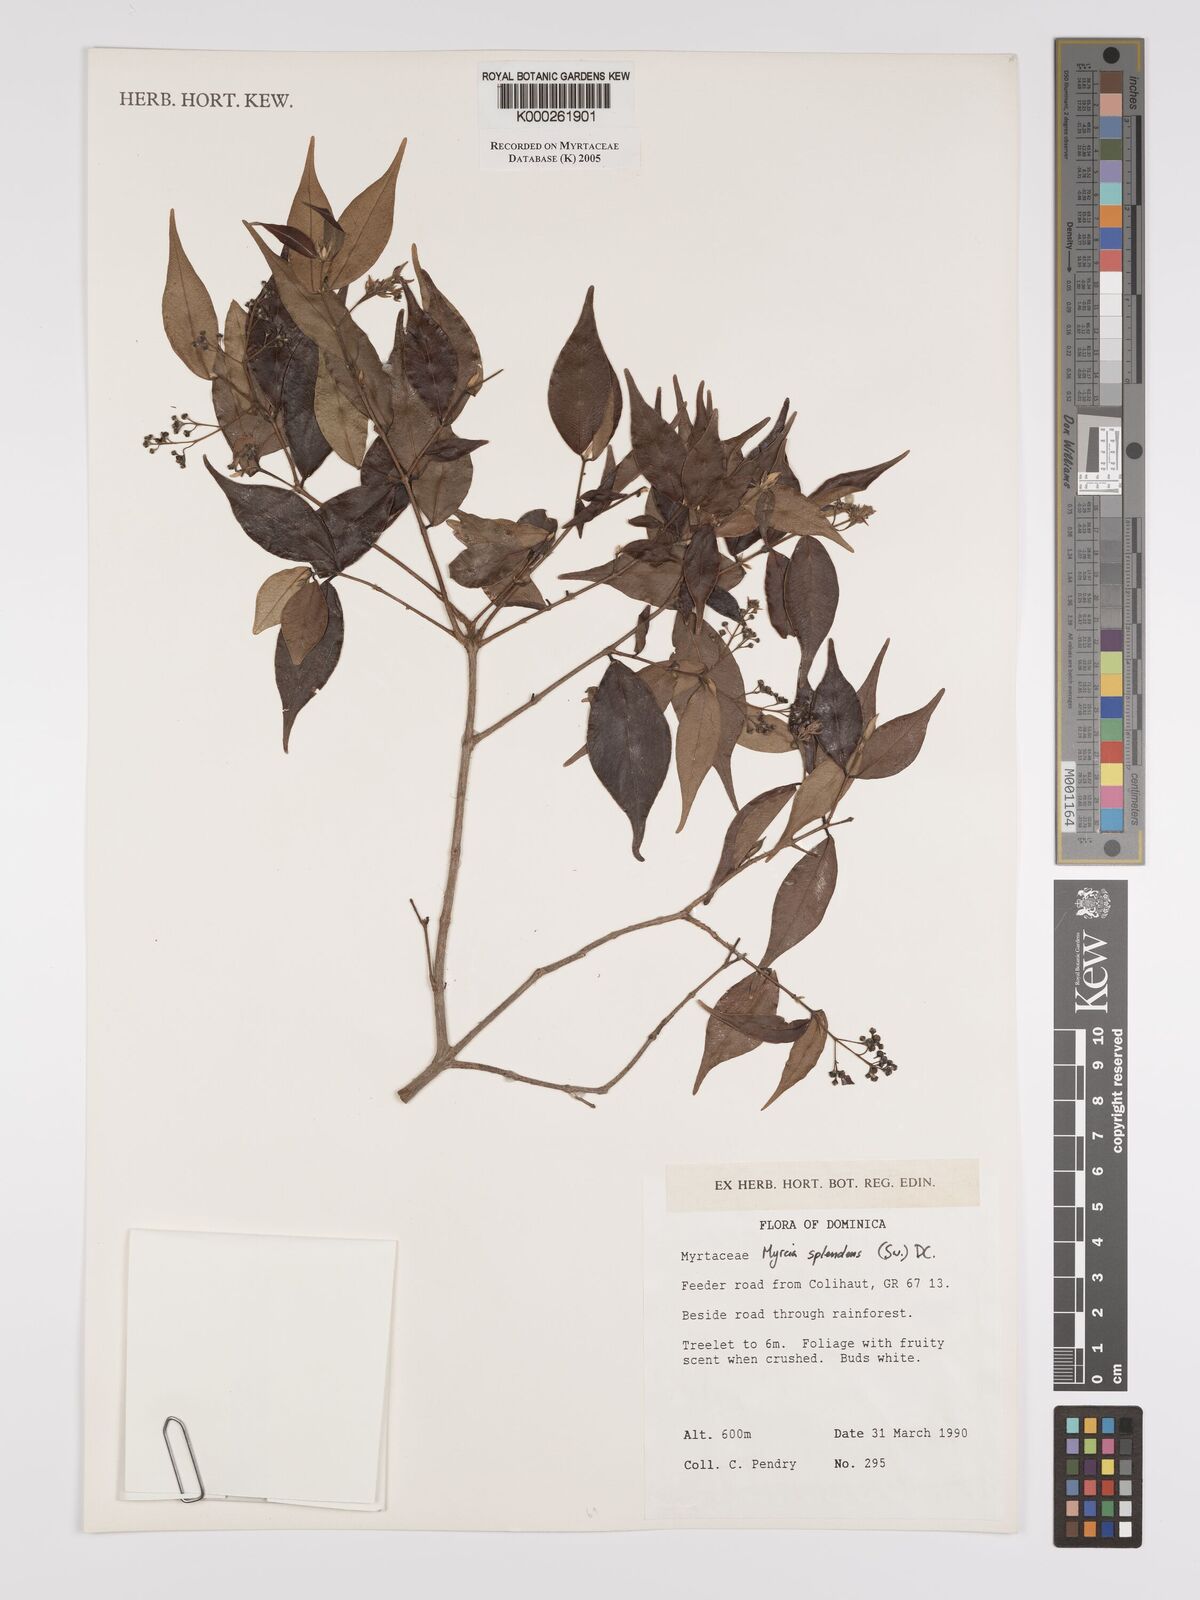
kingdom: Plantae
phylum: Tracheophyta
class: Magnoliopsida
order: Myrtales
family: Myrtaceae
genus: Myrcia
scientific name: Myrcia splendens
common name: Surinam cherry
